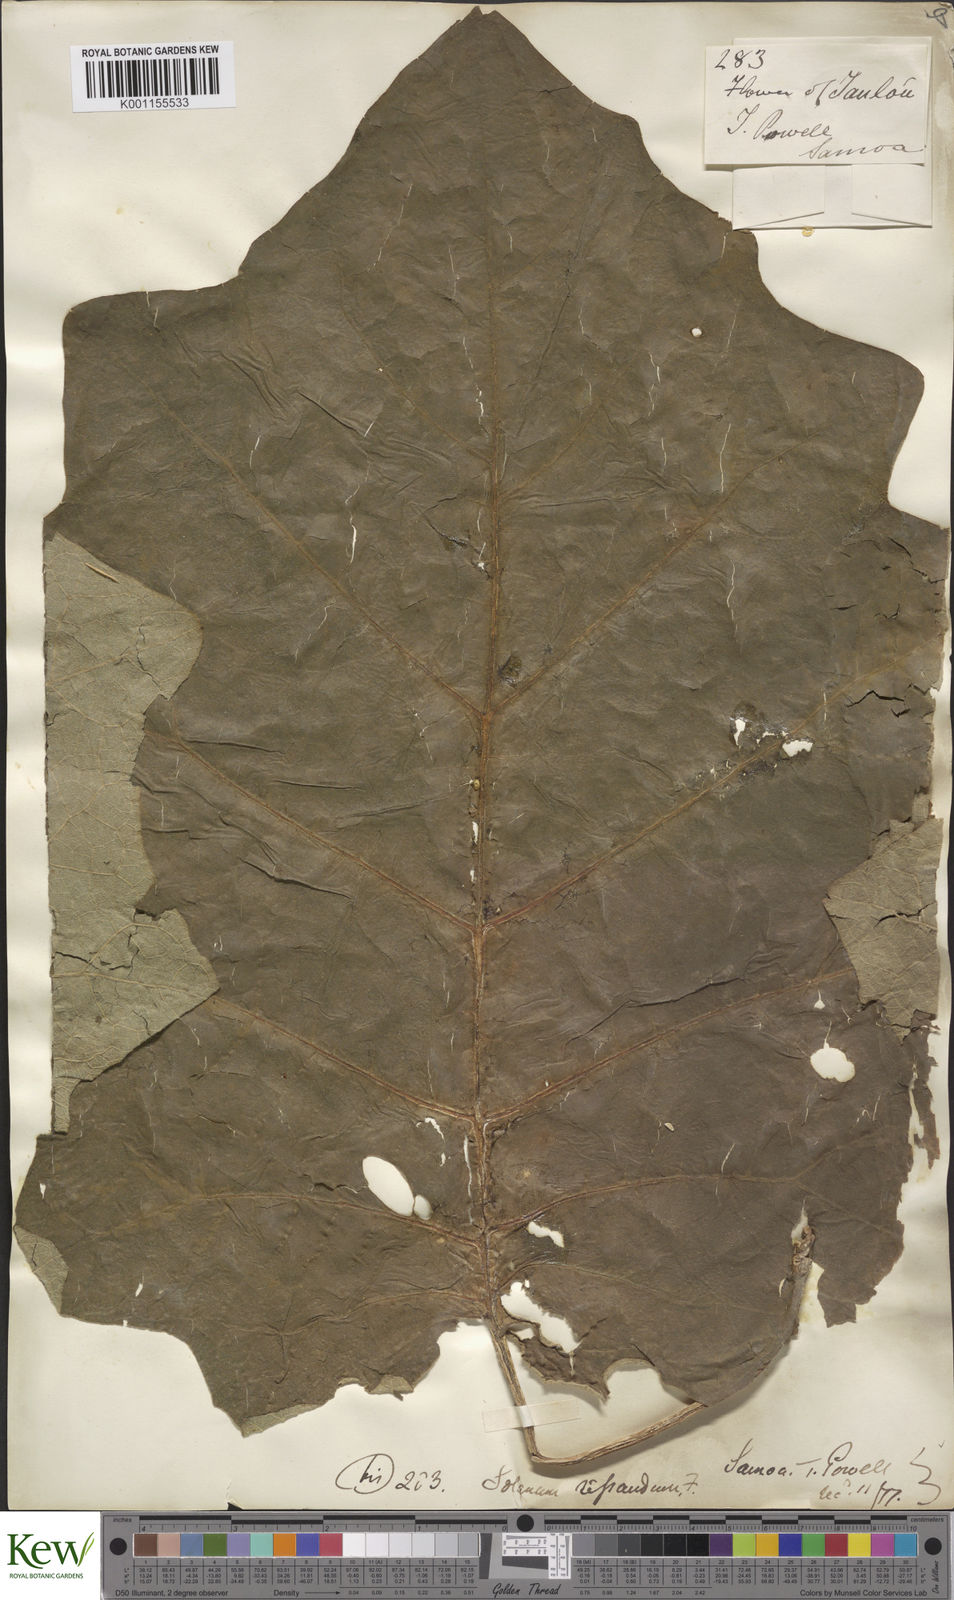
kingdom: Plantae
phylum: Tracheophyta
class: Magnoliopsida
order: Solanales
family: Solanaceae
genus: Solanum
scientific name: Solanum repandum
